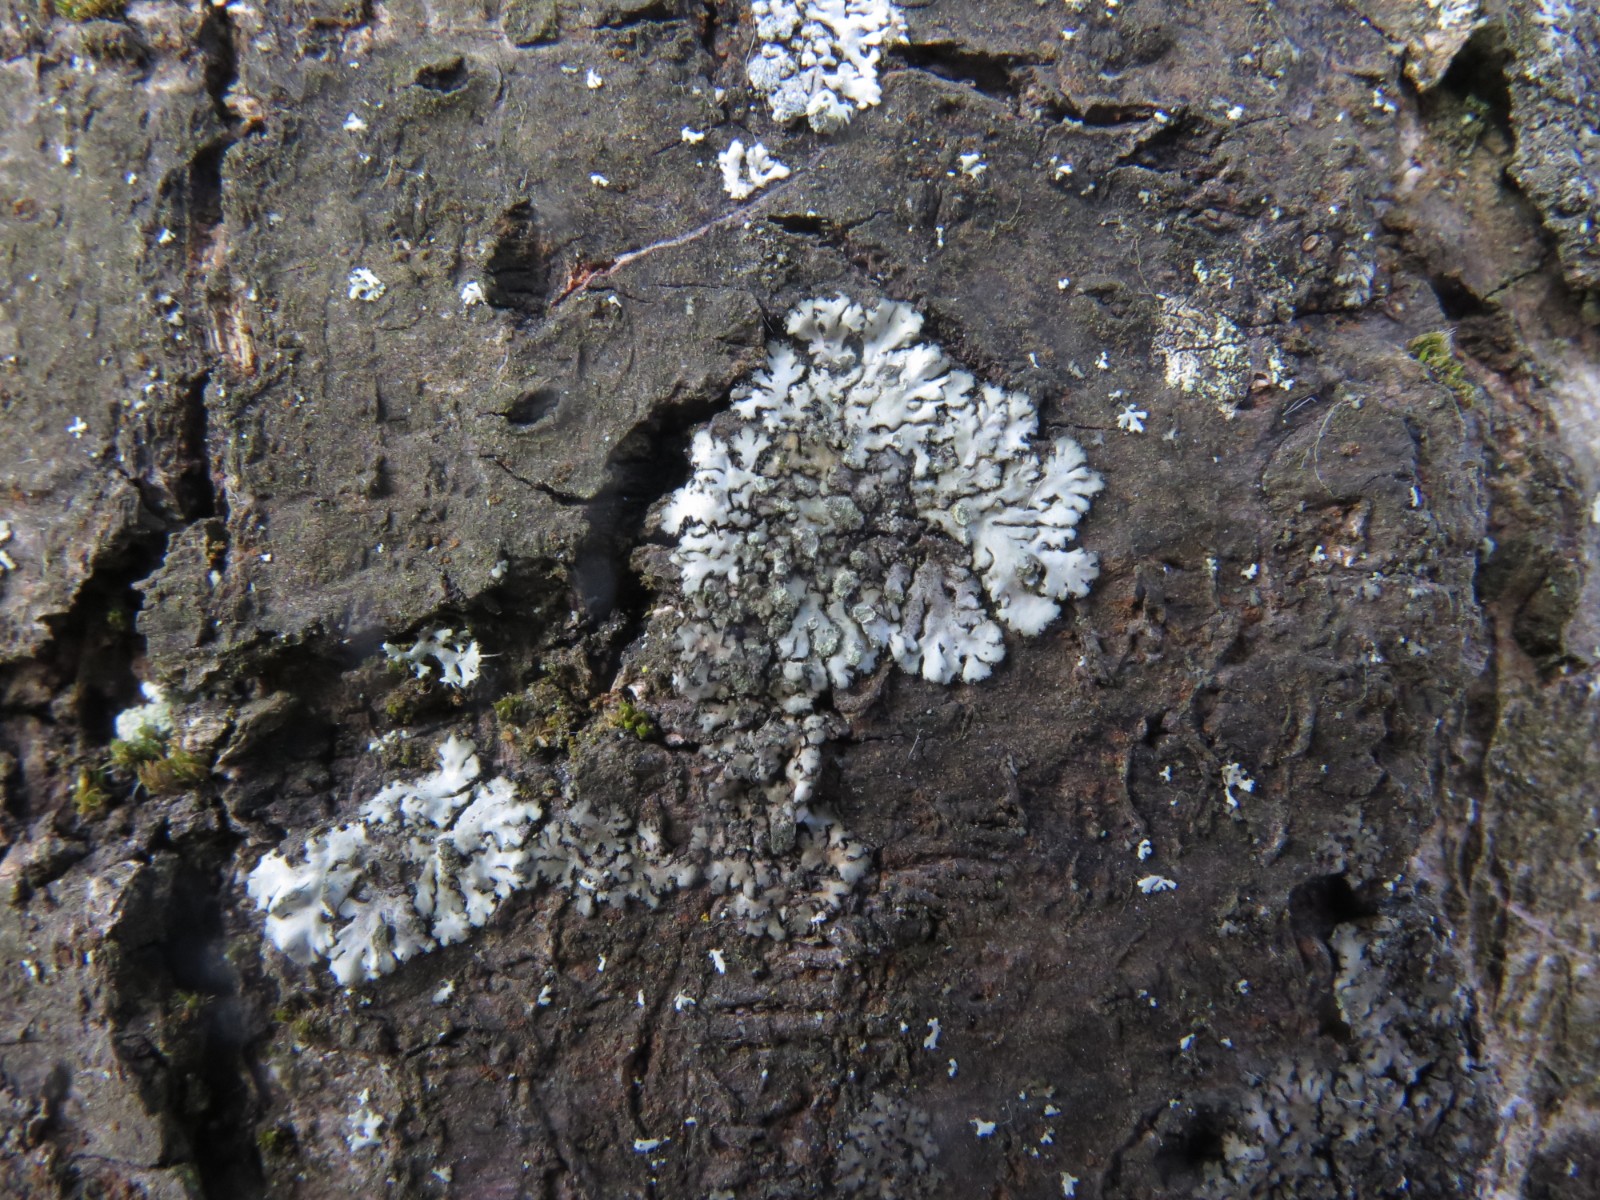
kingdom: Fungi
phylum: Ascomycota
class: Lecanoromycetes
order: Caliciales
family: Physciaceae
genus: Phaeophyscia
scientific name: Phaeophyscia orbicularis
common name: grågrøn rosetlav
